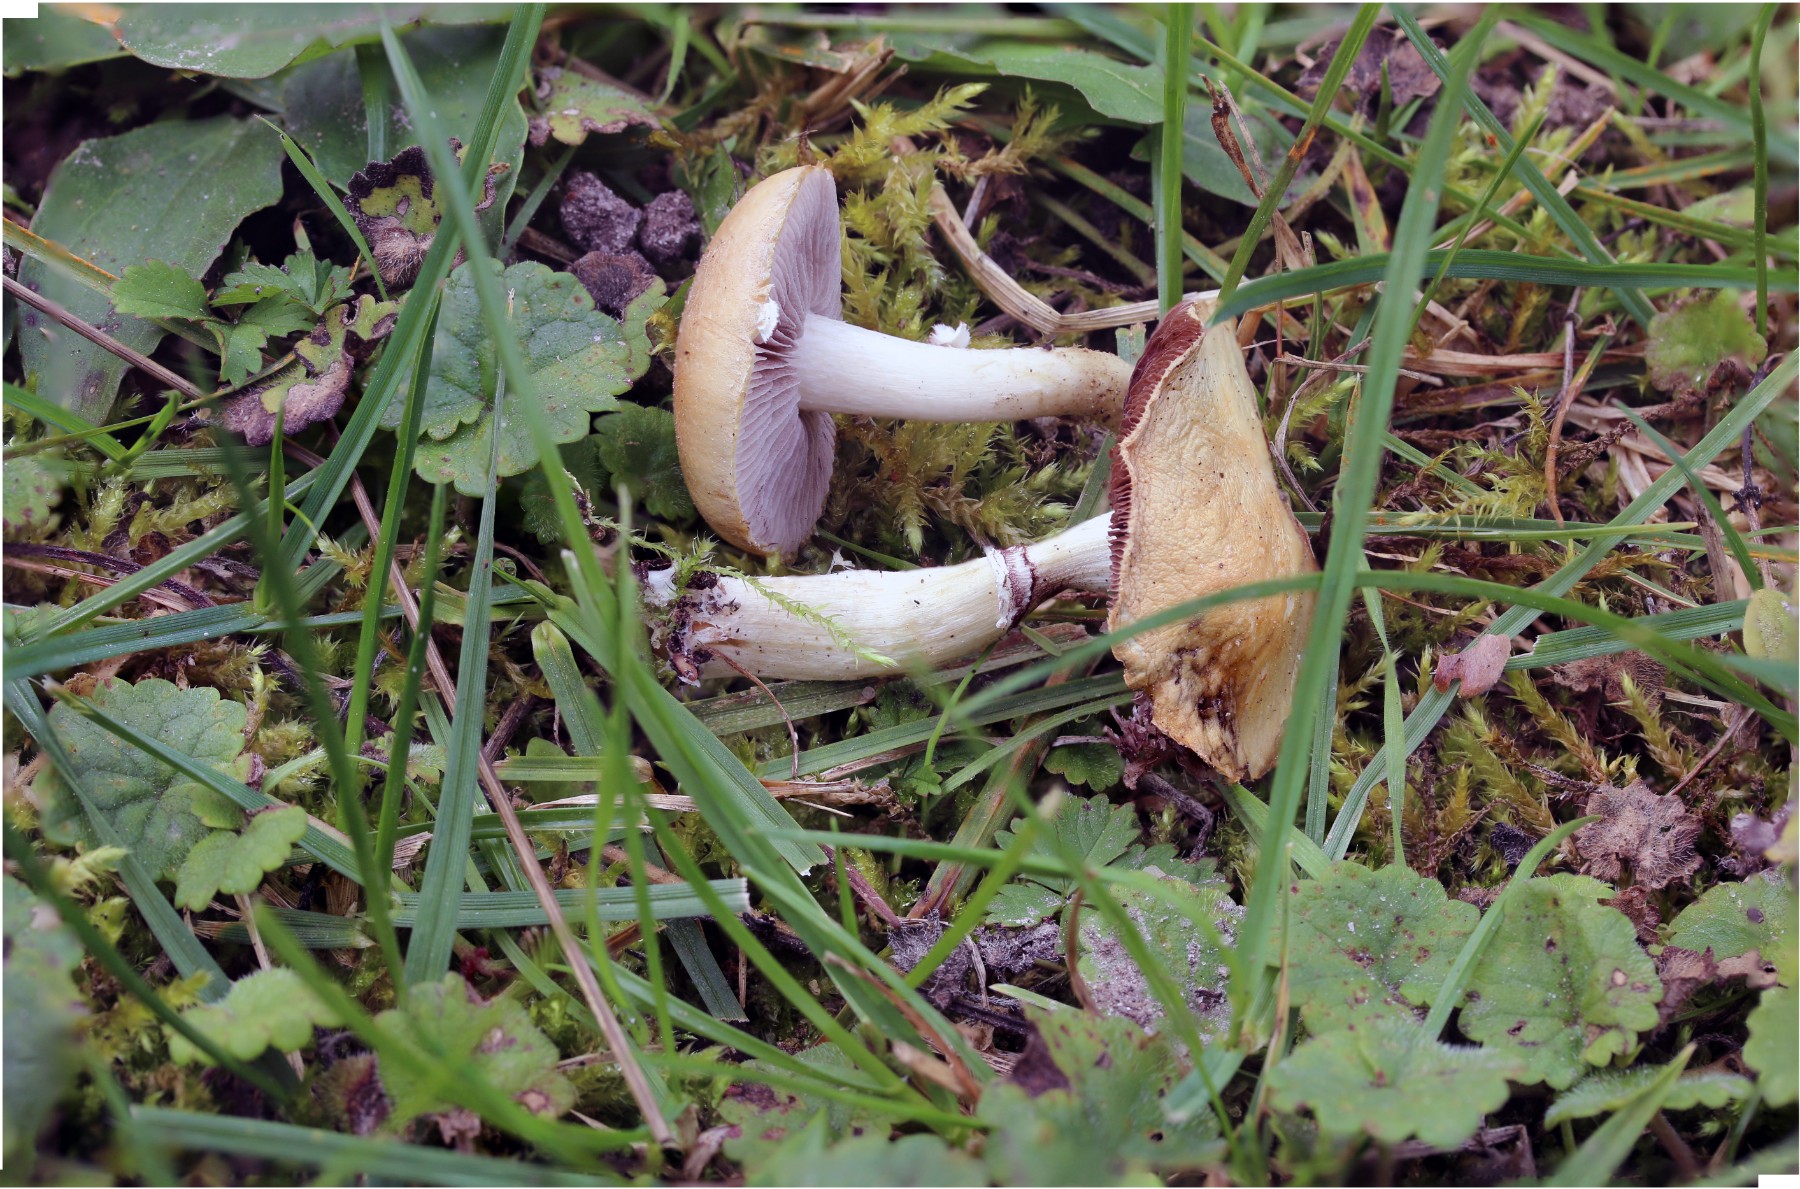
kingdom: Fungi
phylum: Basidiomycota
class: Agaricomycetes
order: Agaricales
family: Hymenogastraceae
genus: Psilocybe
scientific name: Psilocybe coronilla
